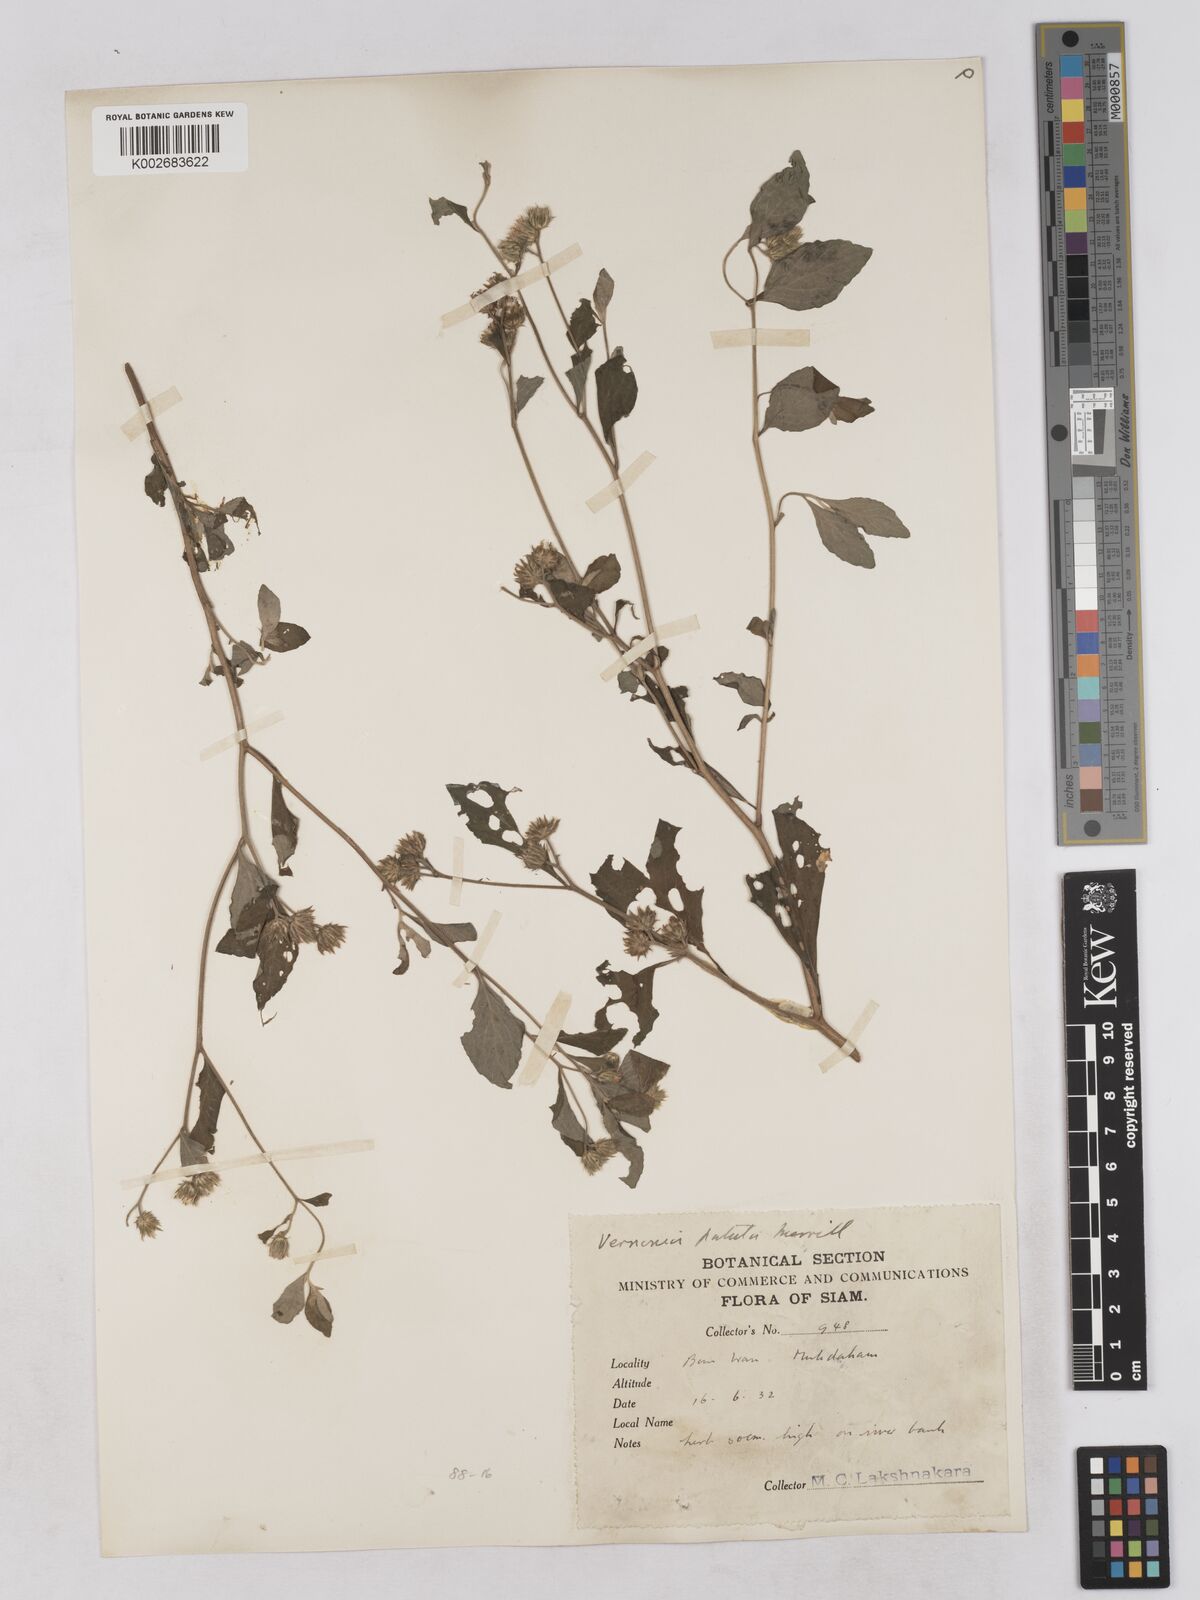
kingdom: Plantae
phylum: Tracheophyta
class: Magnoliopsida
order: Asterales
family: Asteraceae
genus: Cyanthillium
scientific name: Cyanthillium patulum
